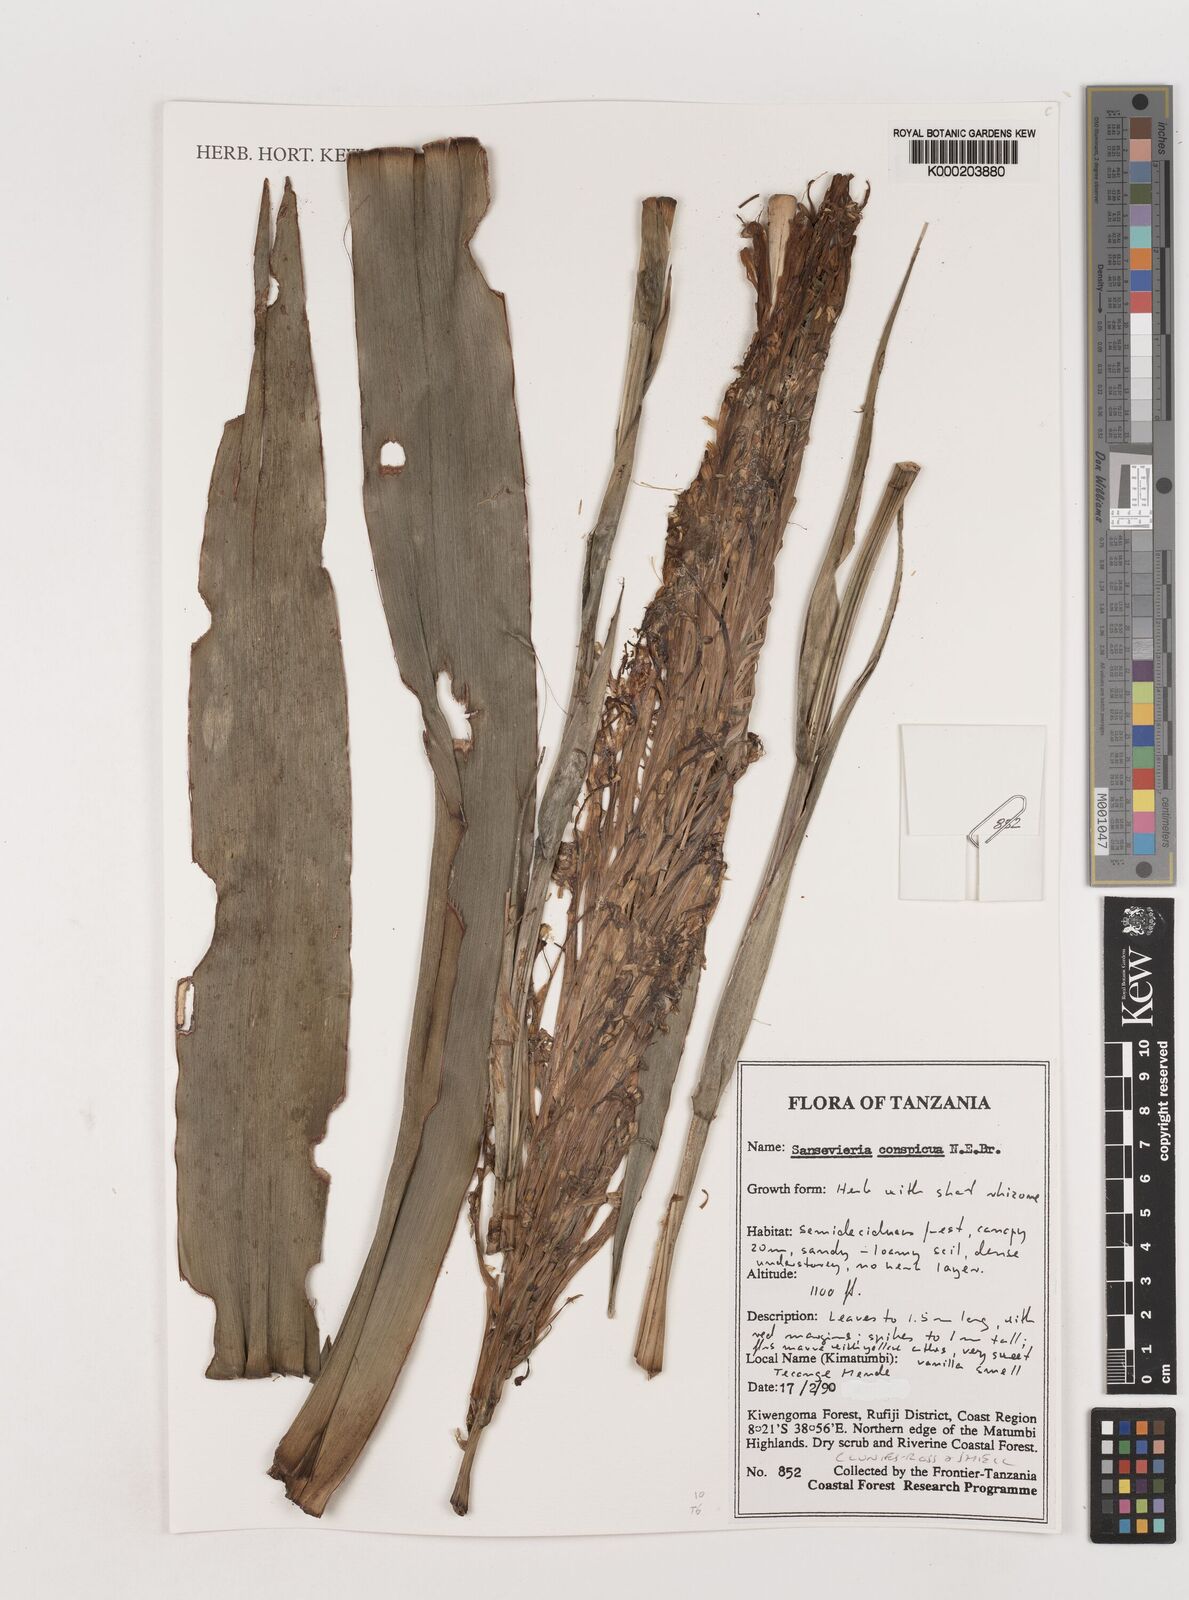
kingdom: Plantae
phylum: Tracheophyta
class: Liliopsida
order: Asparagales
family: Asparagaceae
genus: Dracaena
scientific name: Dracaena conspicua
